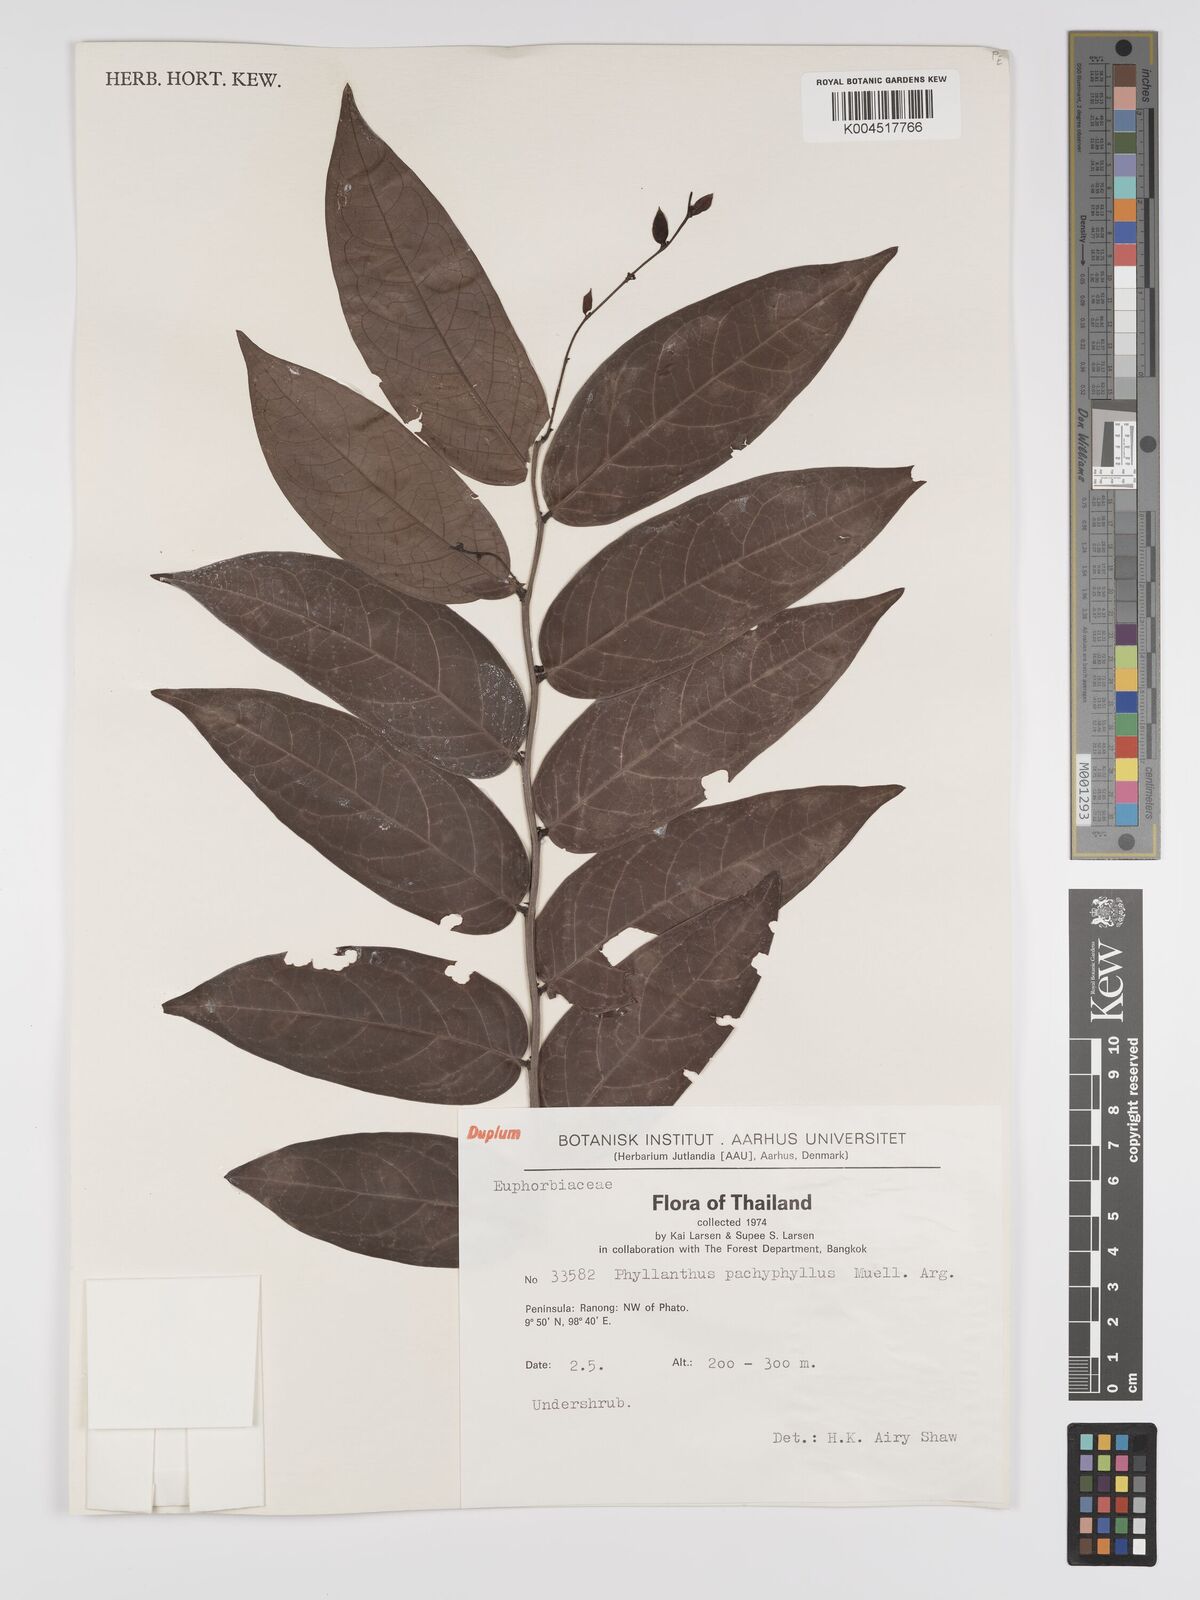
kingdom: Plantae
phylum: Tracheophyta
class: Magnoliopsida
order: Malpighiales
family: Phyllanthaceae
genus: Phyllanthus
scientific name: Phyllanthus pachyphyllus
